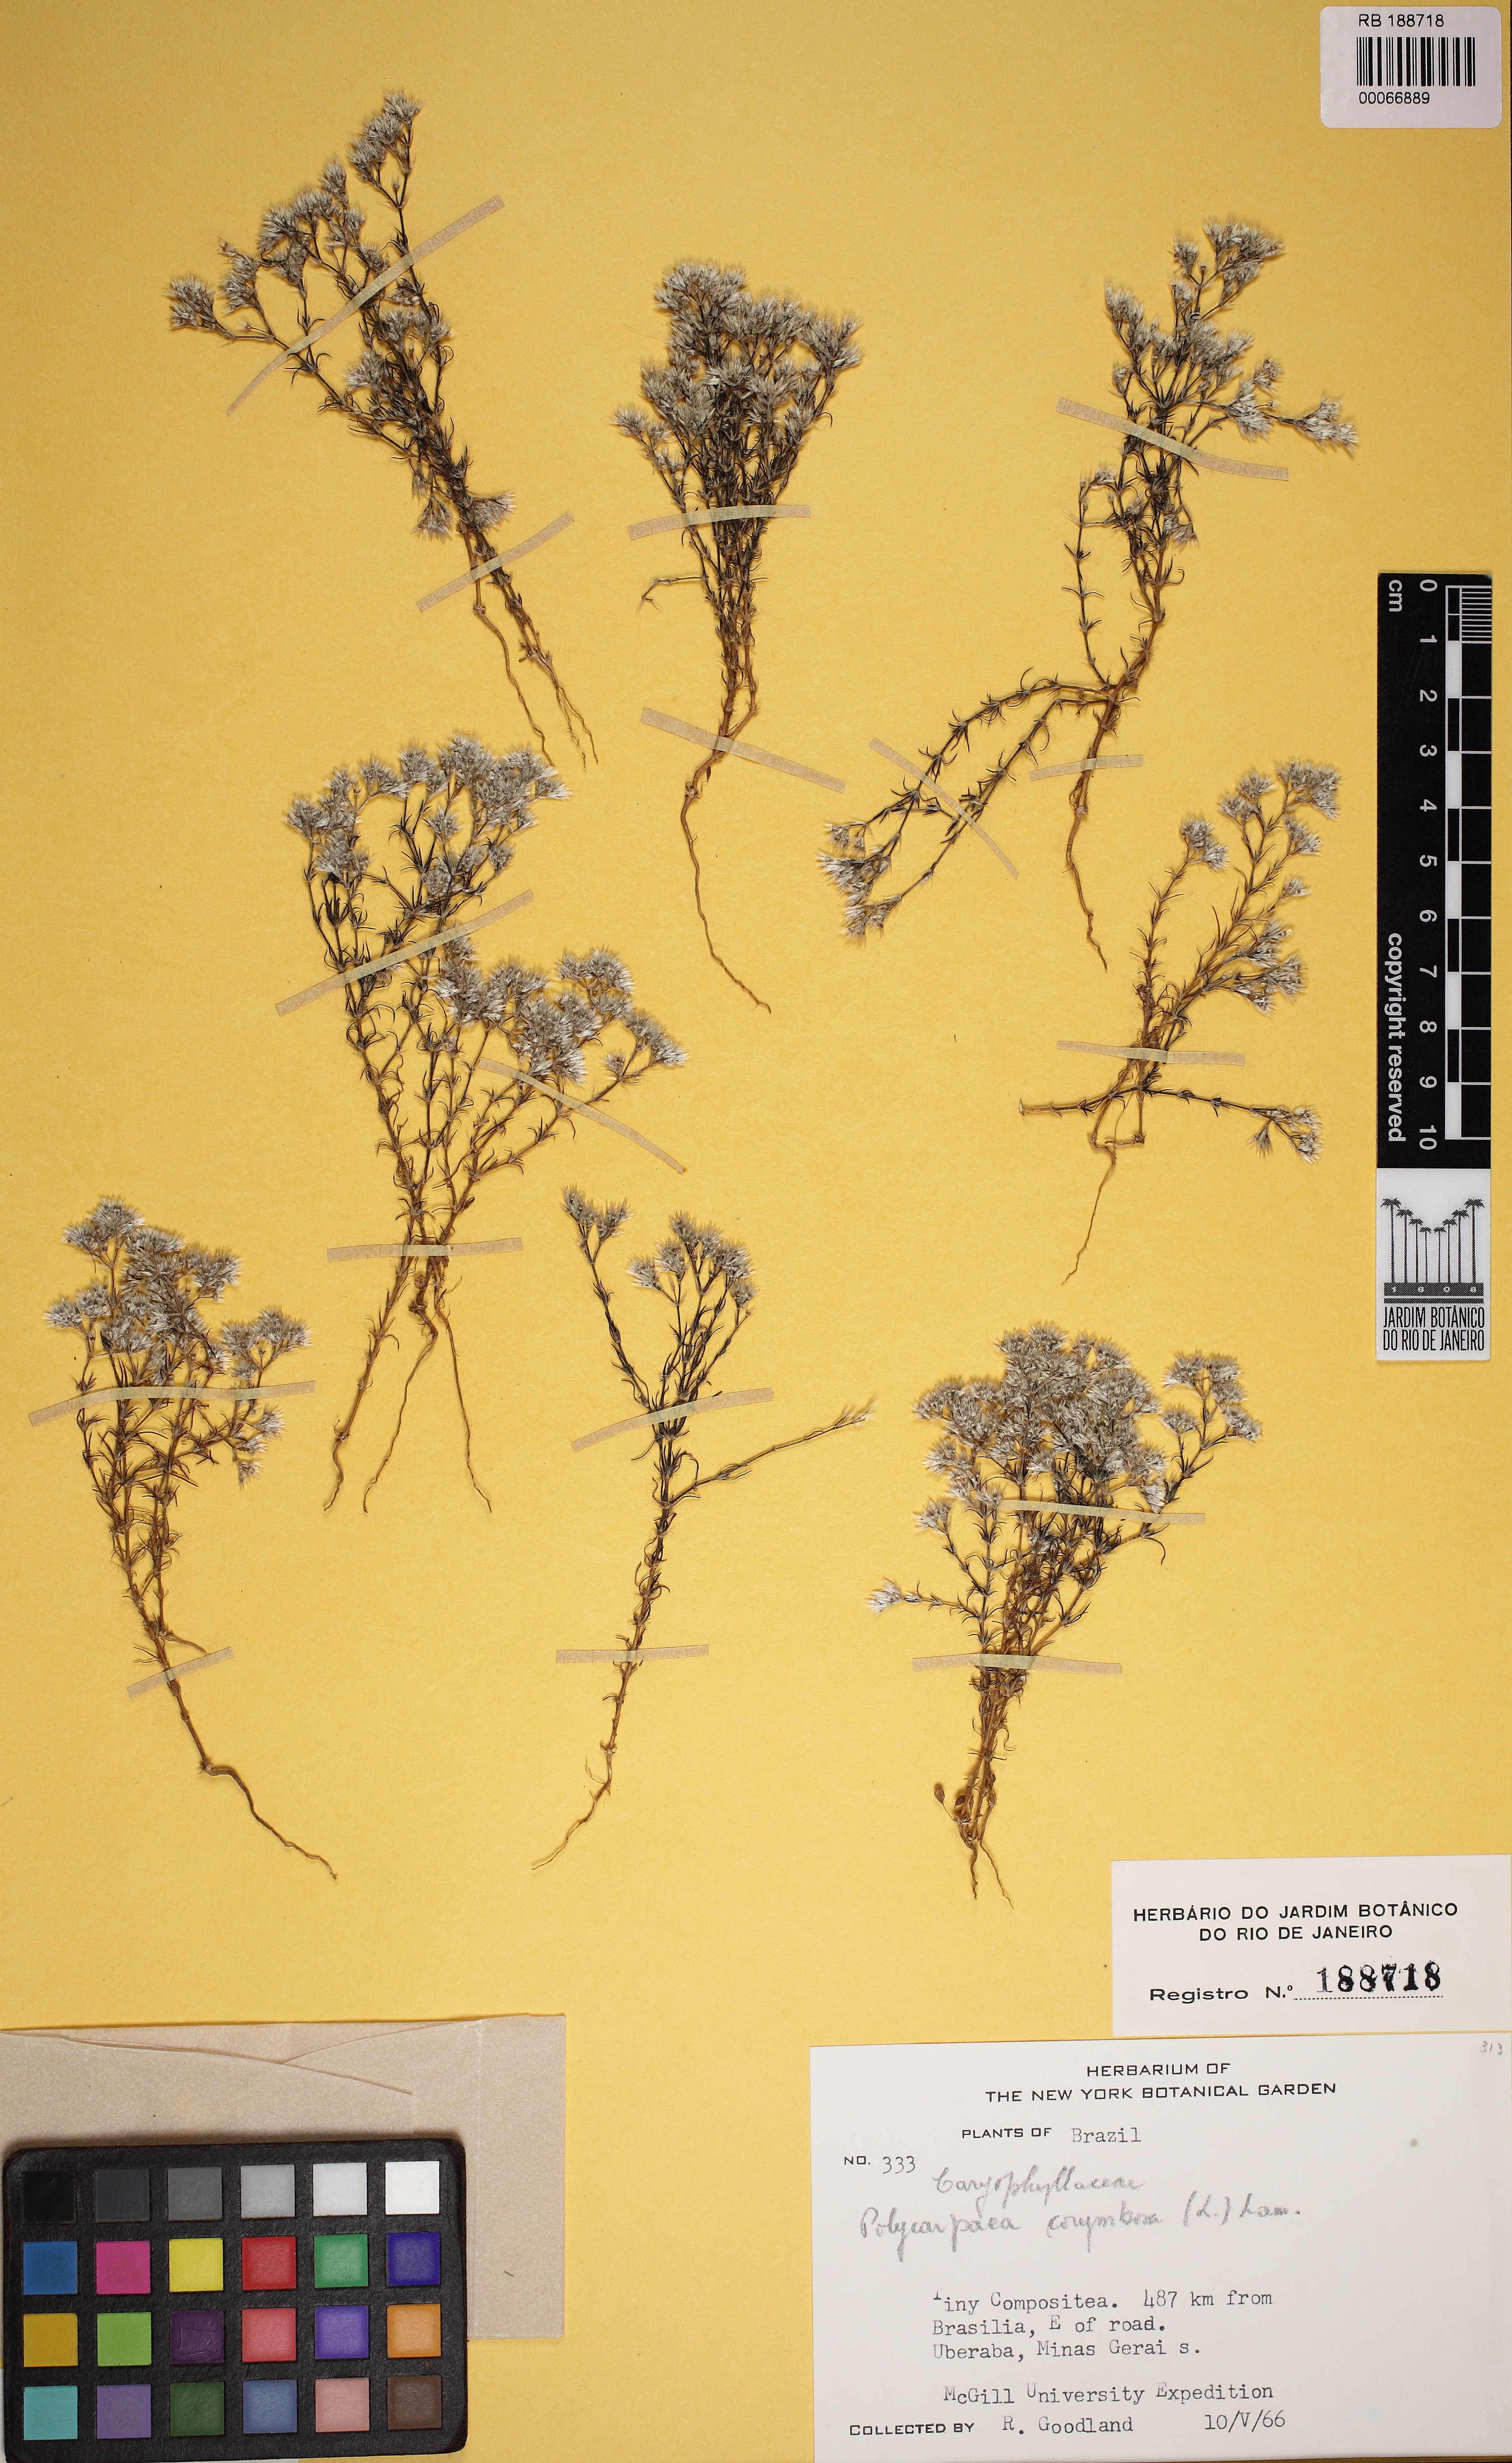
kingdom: Plantae
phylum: Tracheophyta
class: Magnoliopsida
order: Caryophyllales
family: Caryophyllaceae
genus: Polycarpaea
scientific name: Polycarpaea corymbosa
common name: Oldman's cap
